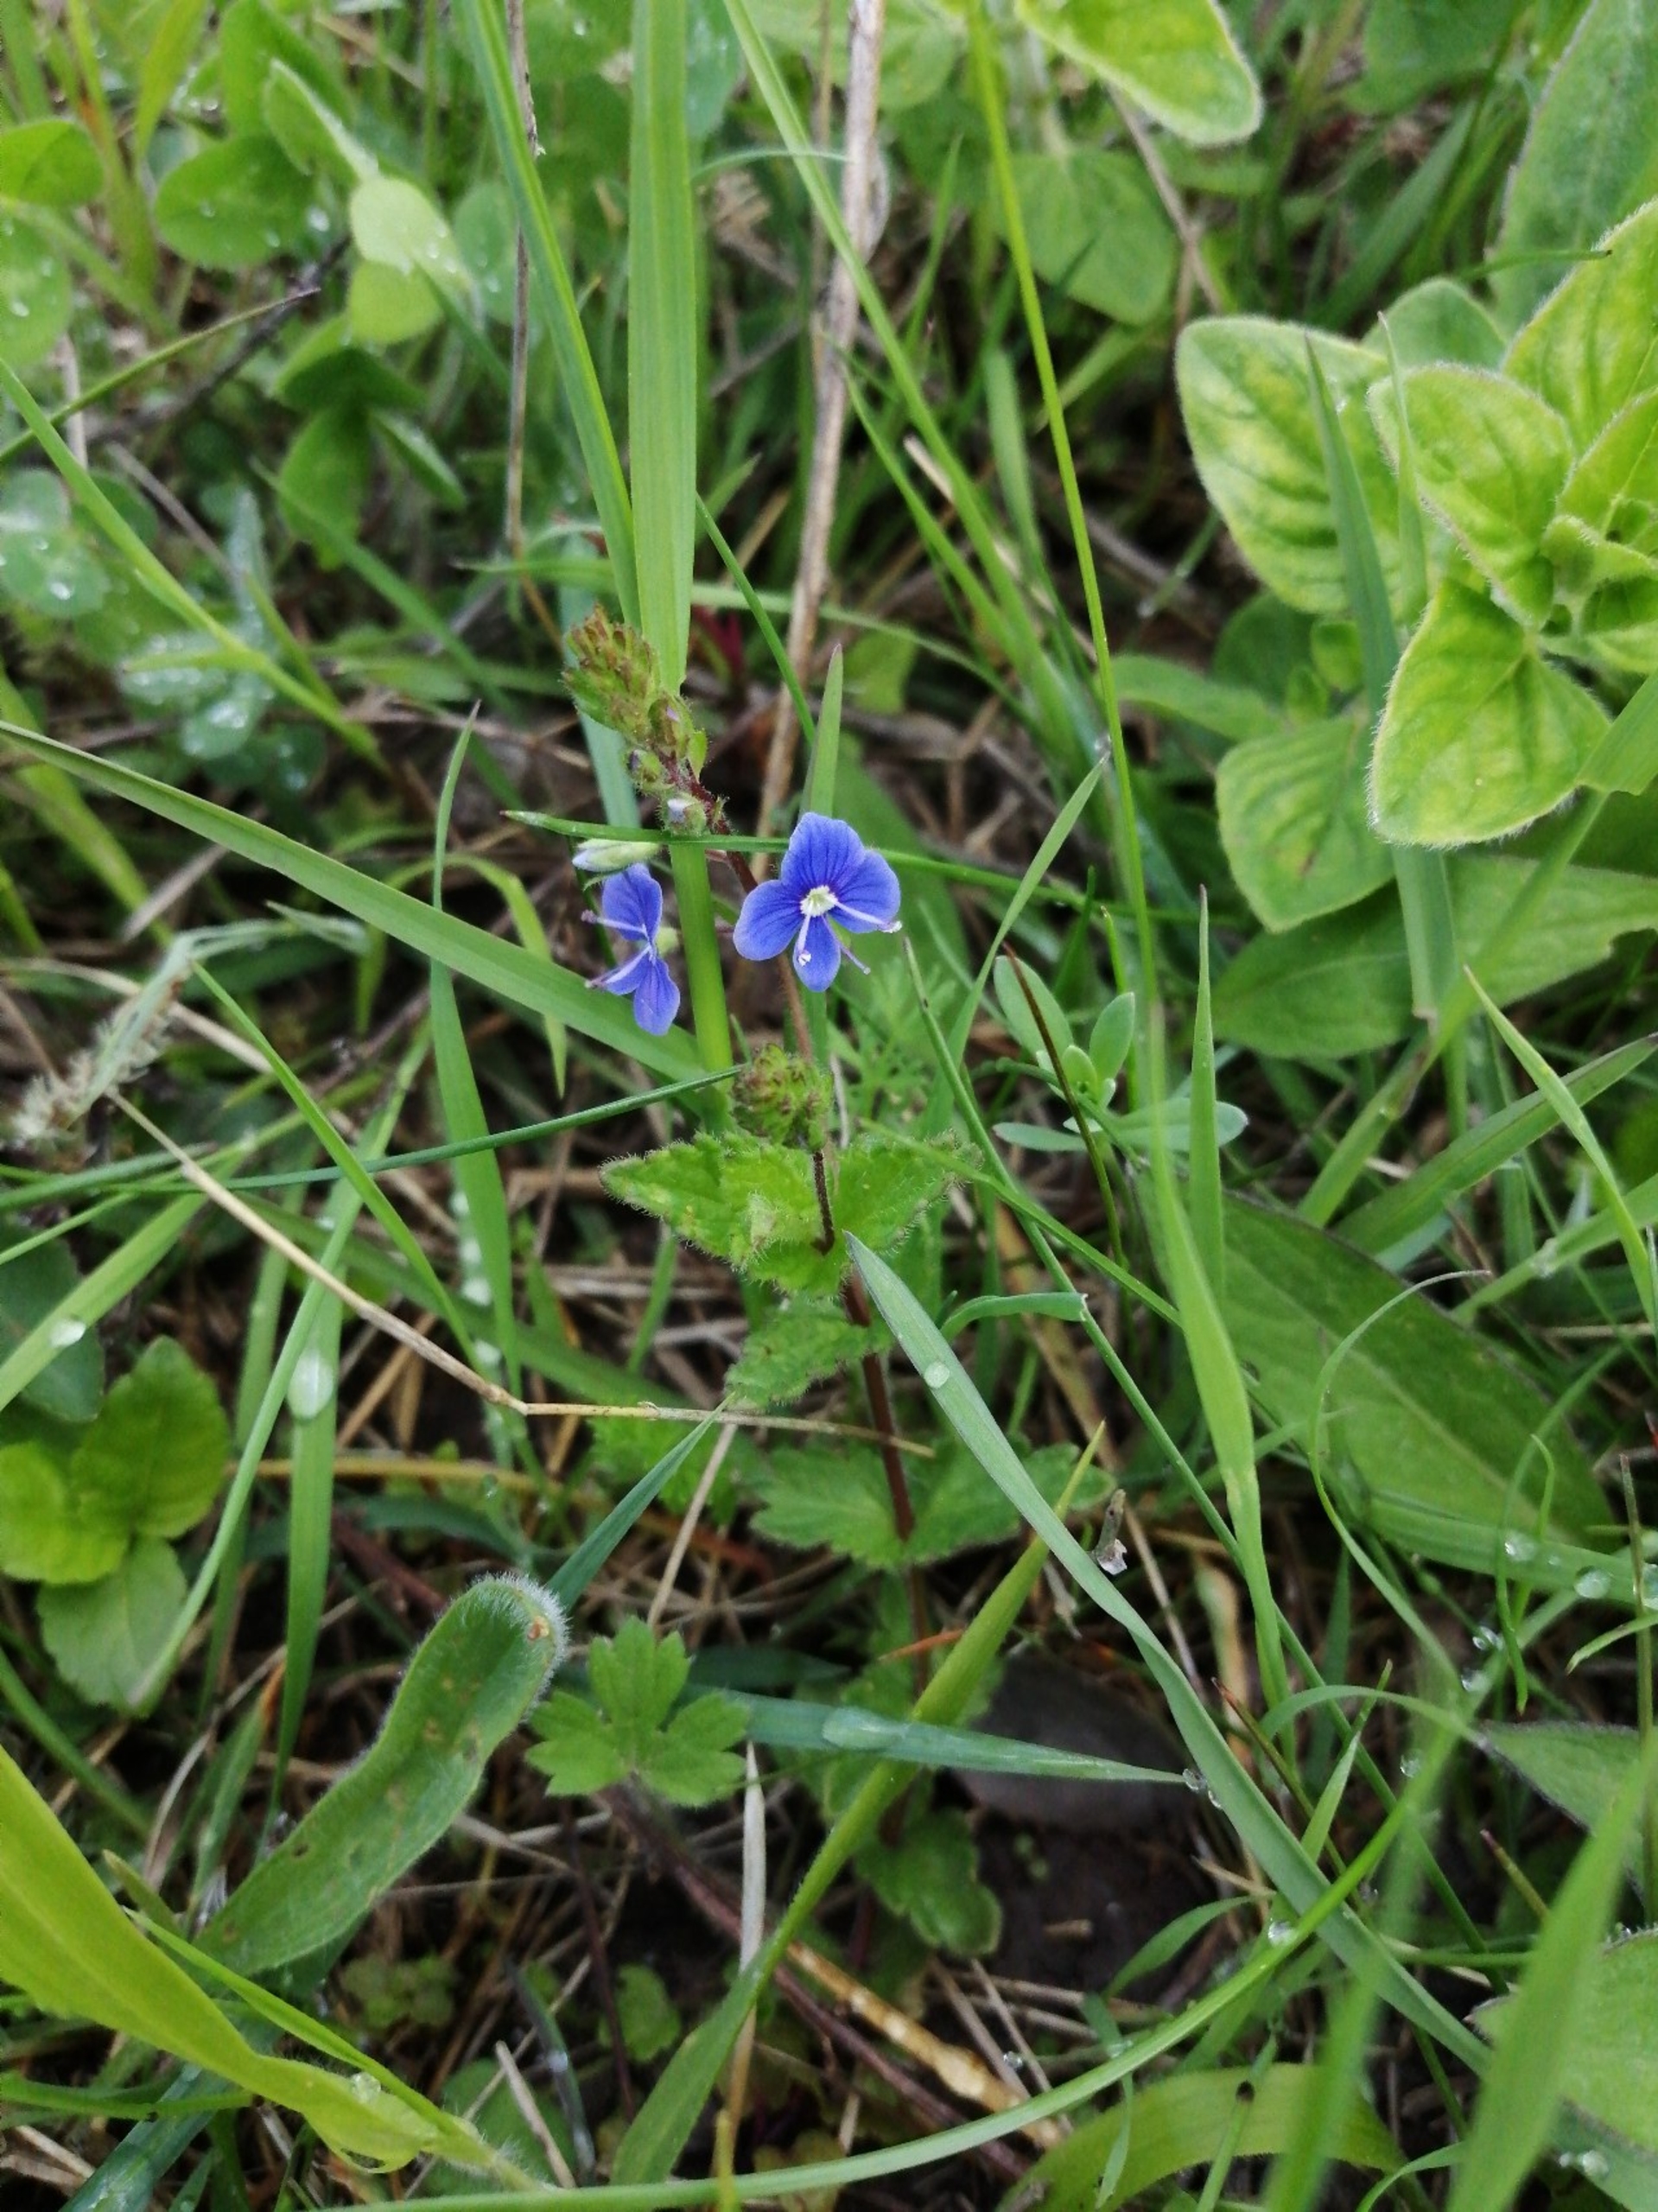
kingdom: Plantae
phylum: Tracheophyta
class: Magnoliopsida
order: Lamiales
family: Plantaginaceae
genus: Veronica
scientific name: Veronica chamaedrys
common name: Tveskægget ærenpris
